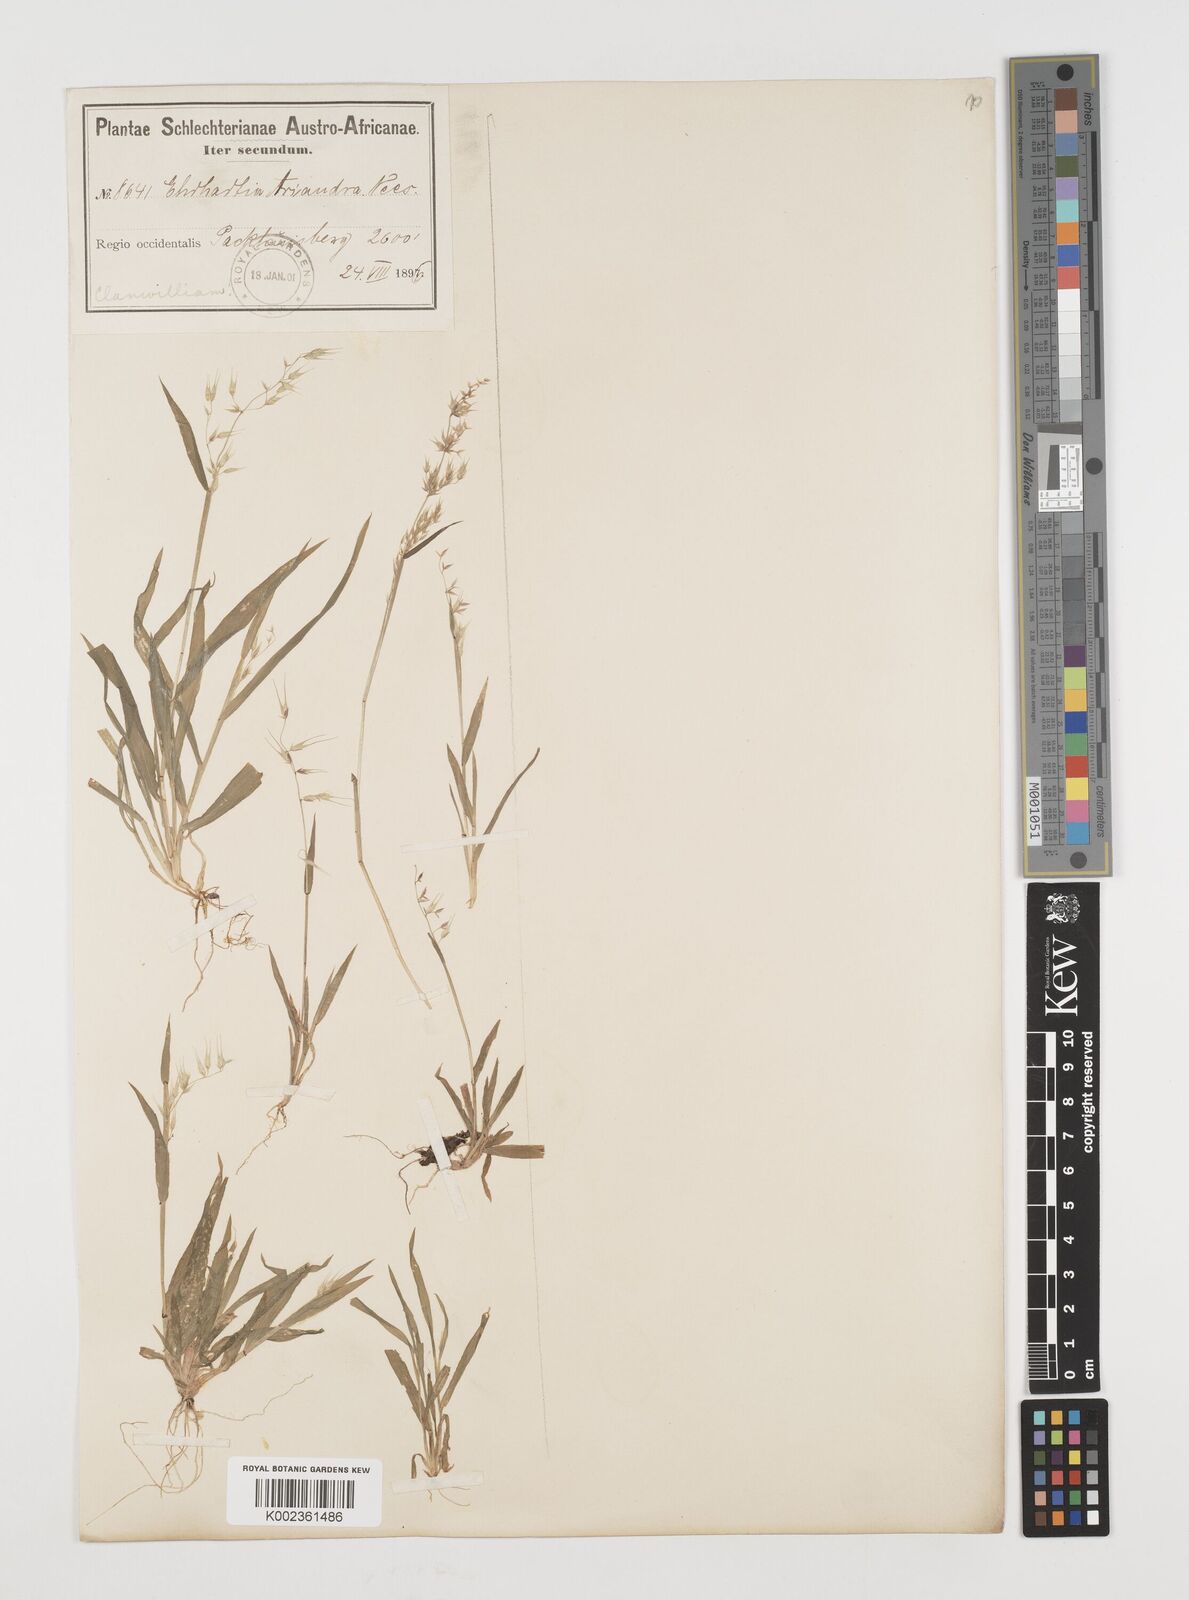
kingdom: Plantae
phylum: Tracheophyta
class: Liliopsida
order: Poales
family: Poaceae
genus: Ehrharta
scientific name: Ehrharta longiflora
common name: Longflowered veldtgrass
